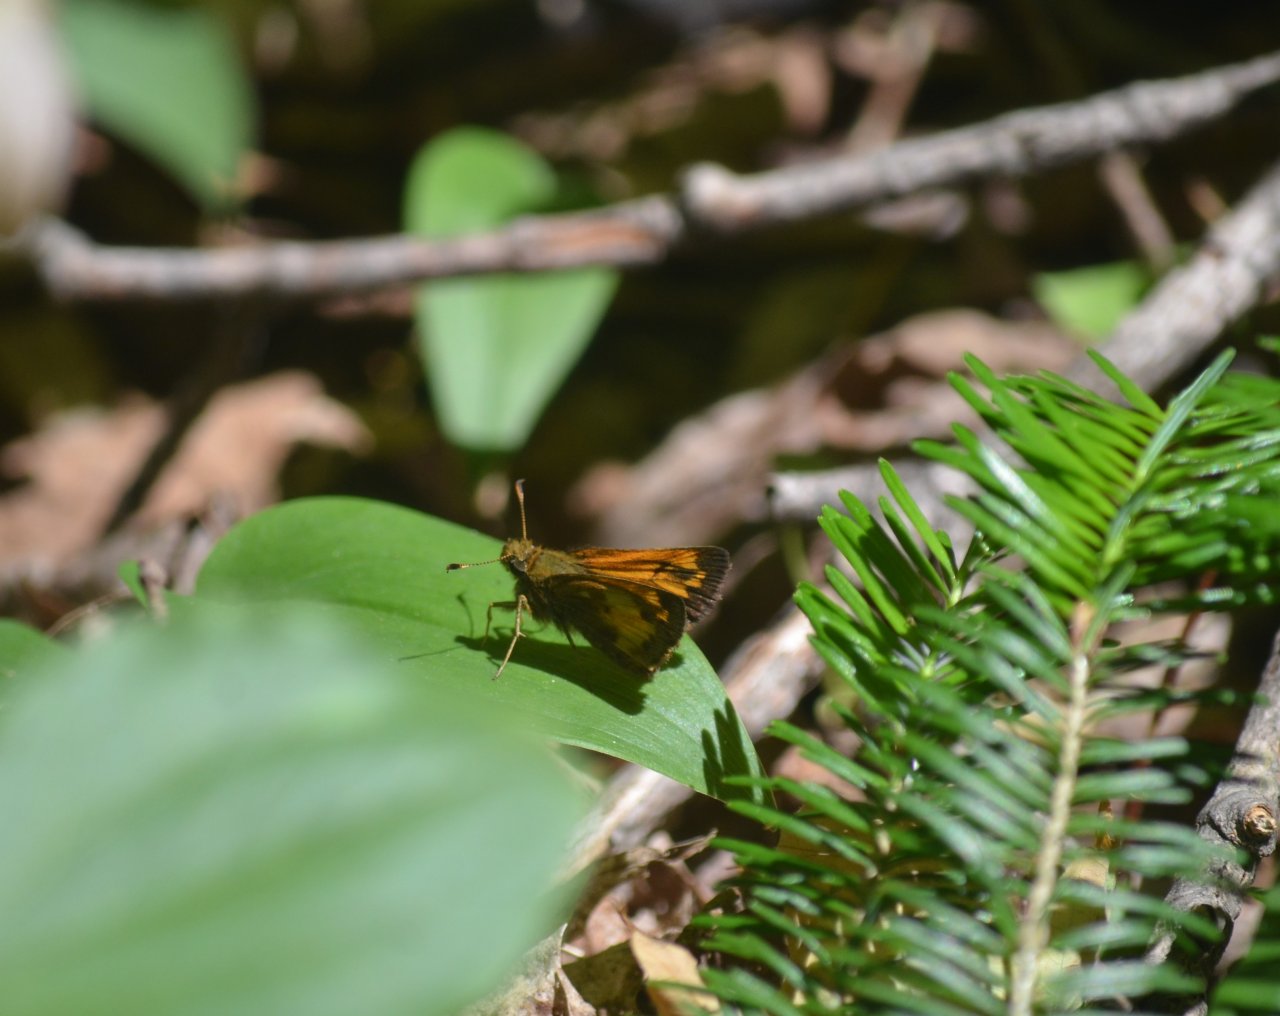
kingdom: Animalia
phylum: Arthropoda
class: Insecta
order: Lepidoptera
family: Hesperiidae
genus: Lon
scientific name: Lon hobomok
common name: Hobomok Skipper
